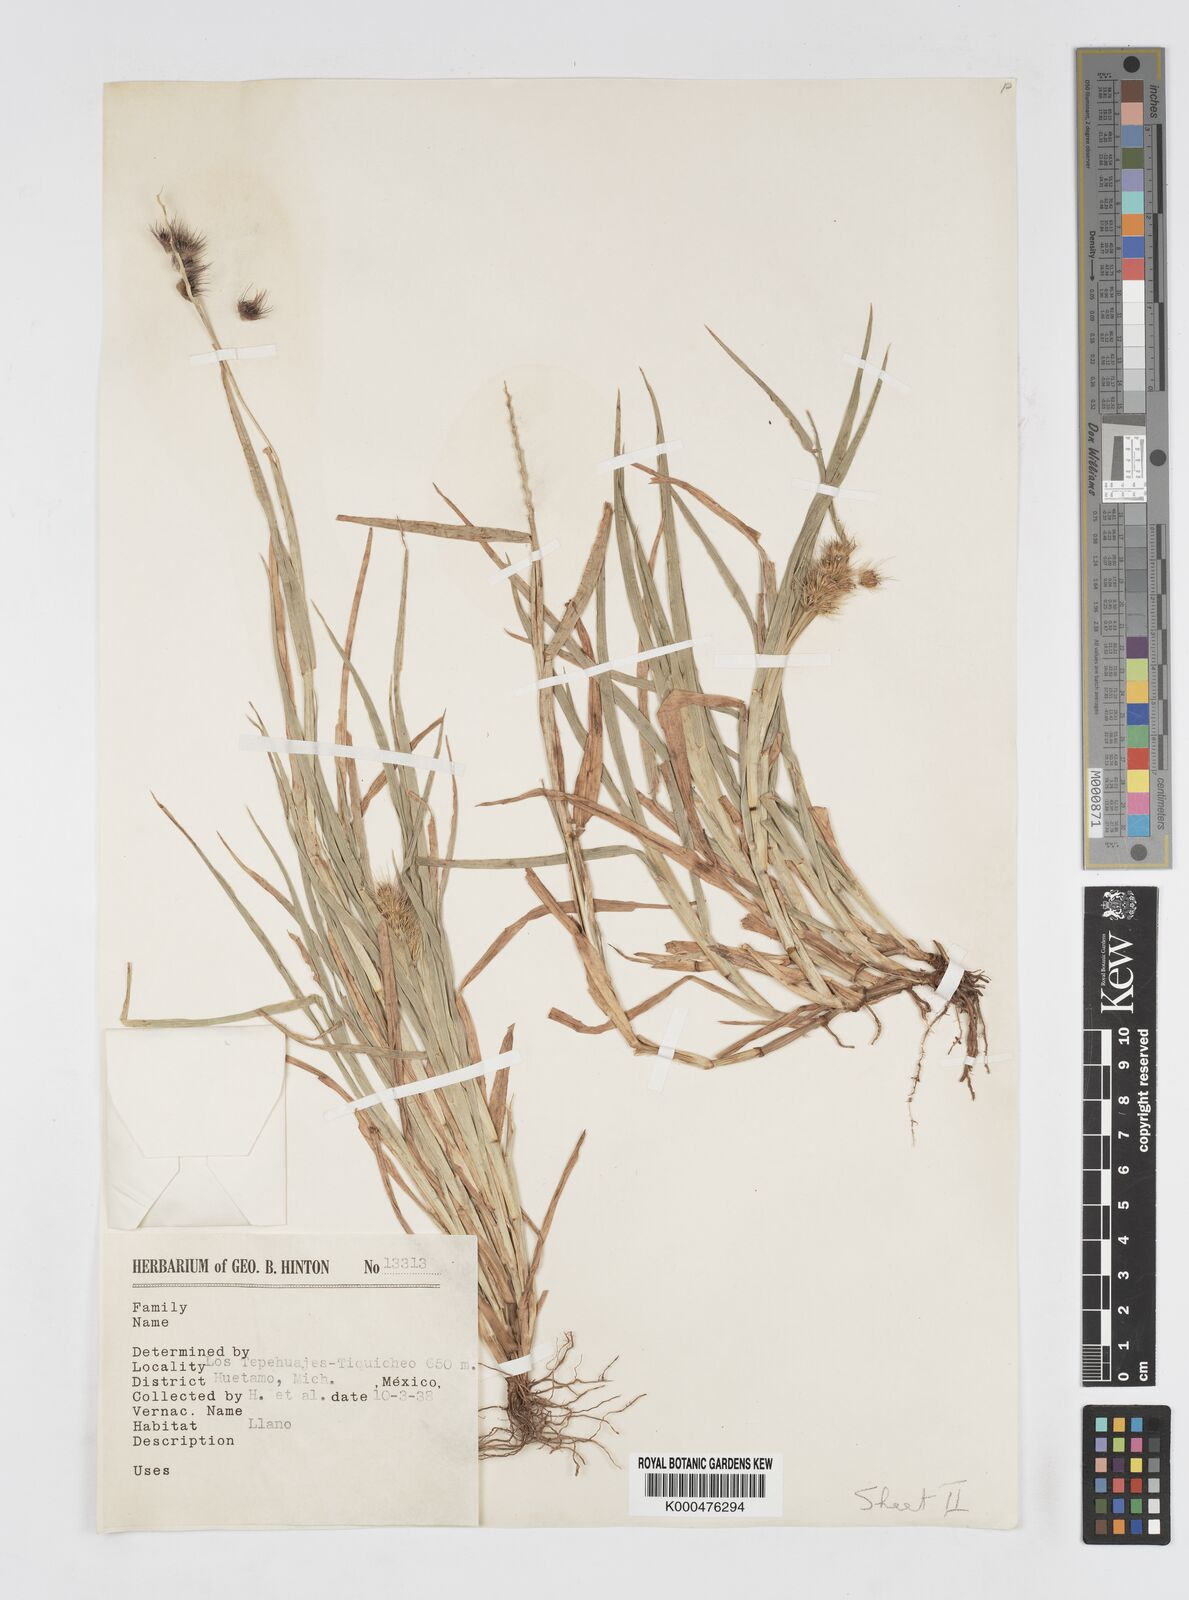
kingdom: Plantae
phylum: Tracheophyta
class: Liliopsida
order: Poales
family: Poaceae
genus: Cenchrus
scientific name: Cenchrus pilosus
